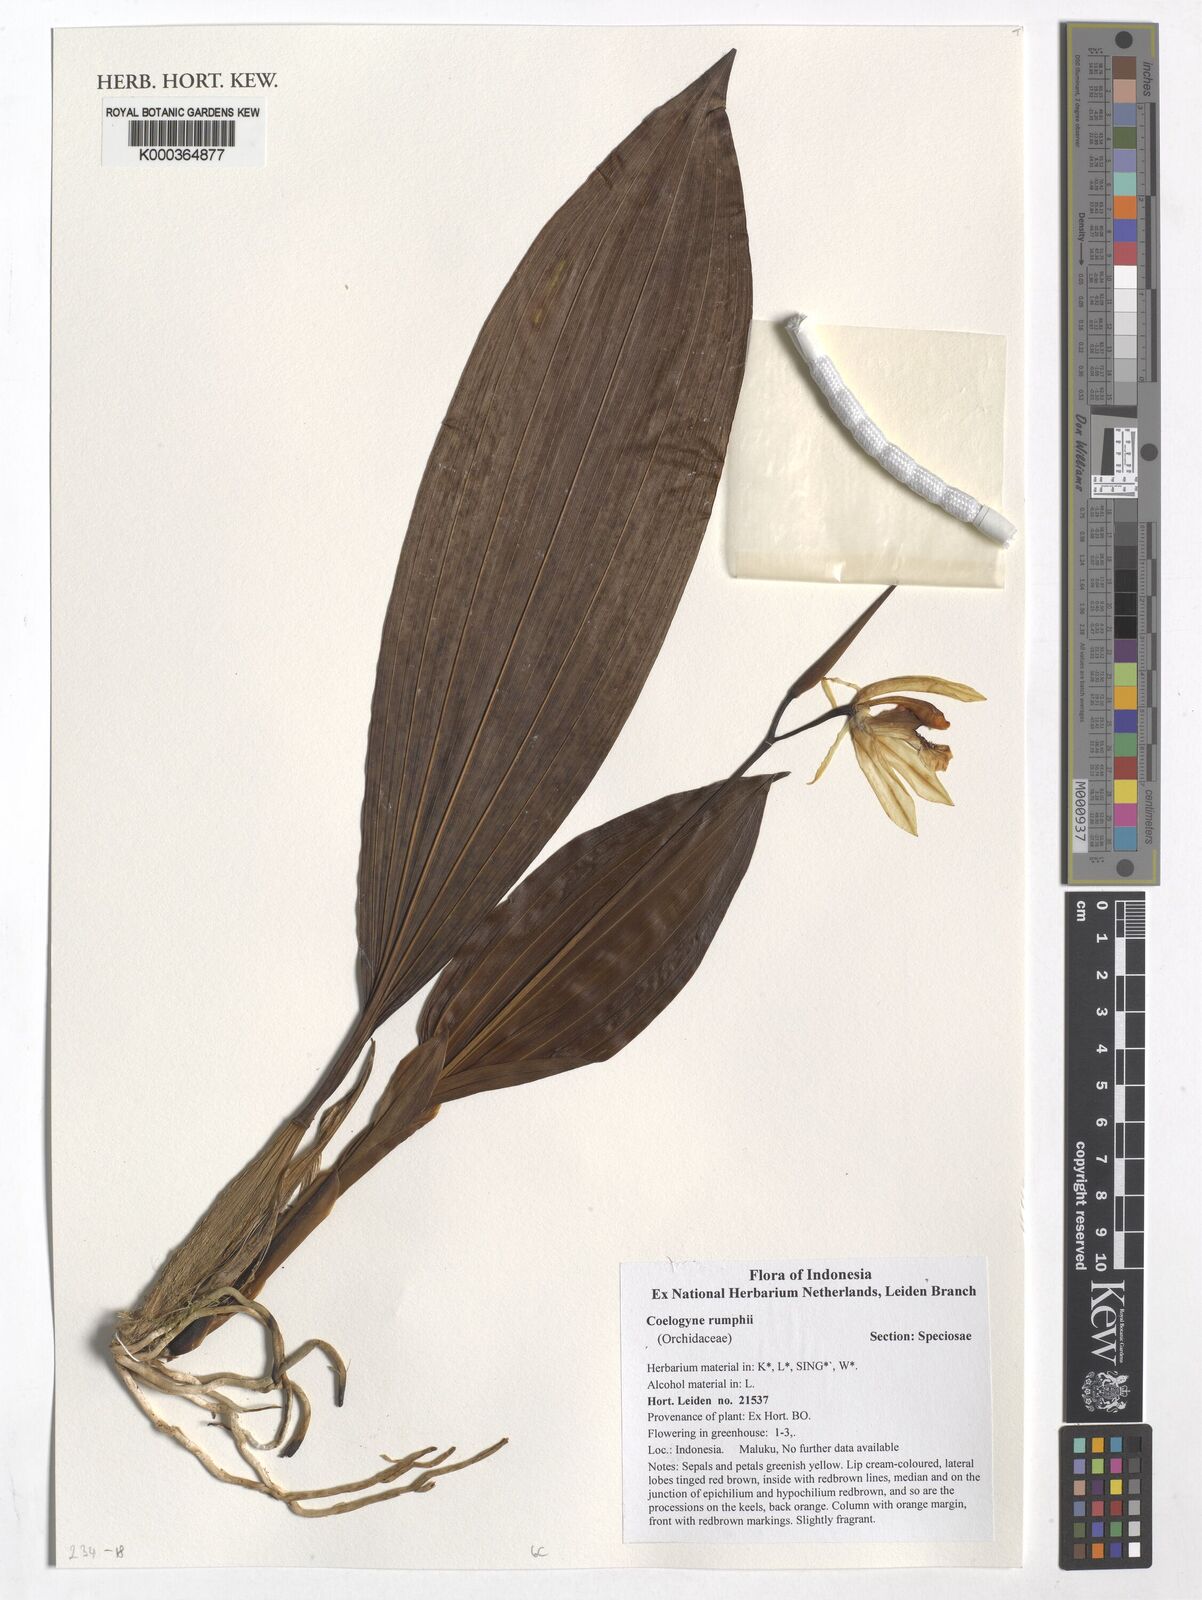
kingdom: Plantae
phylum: Tracheophyta
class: Liliopsida
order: Asparagales
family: Orchidaceae
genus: Coelogyne
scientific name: Coelogyne rumphii
